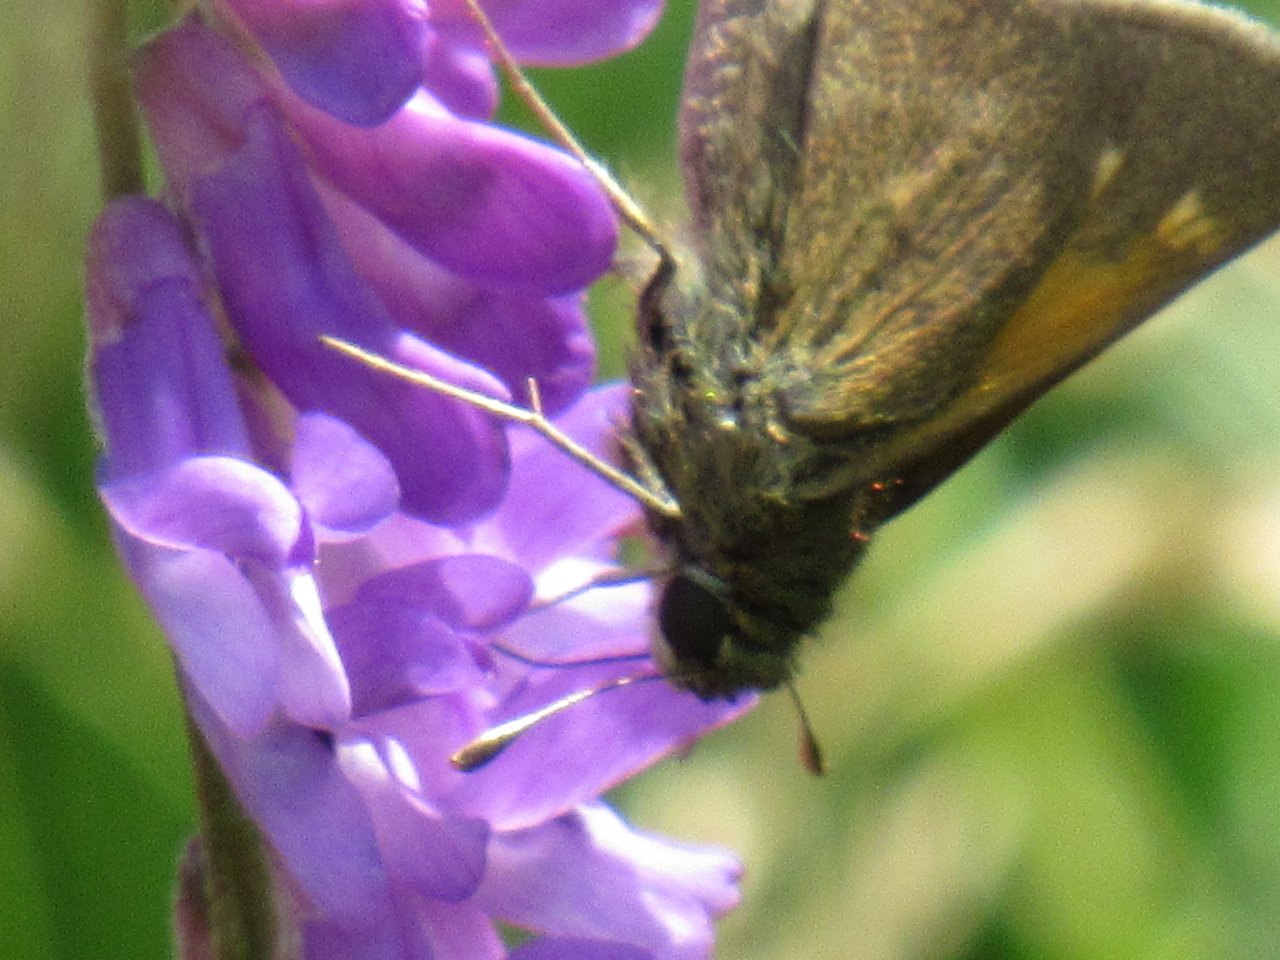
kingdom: Animalia
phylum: Arthropoda
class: Insecta
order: Lepidoptera
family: Hesperiidae
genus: Polites
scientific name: Polites themistocles
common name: Tawny-edged Skipper
